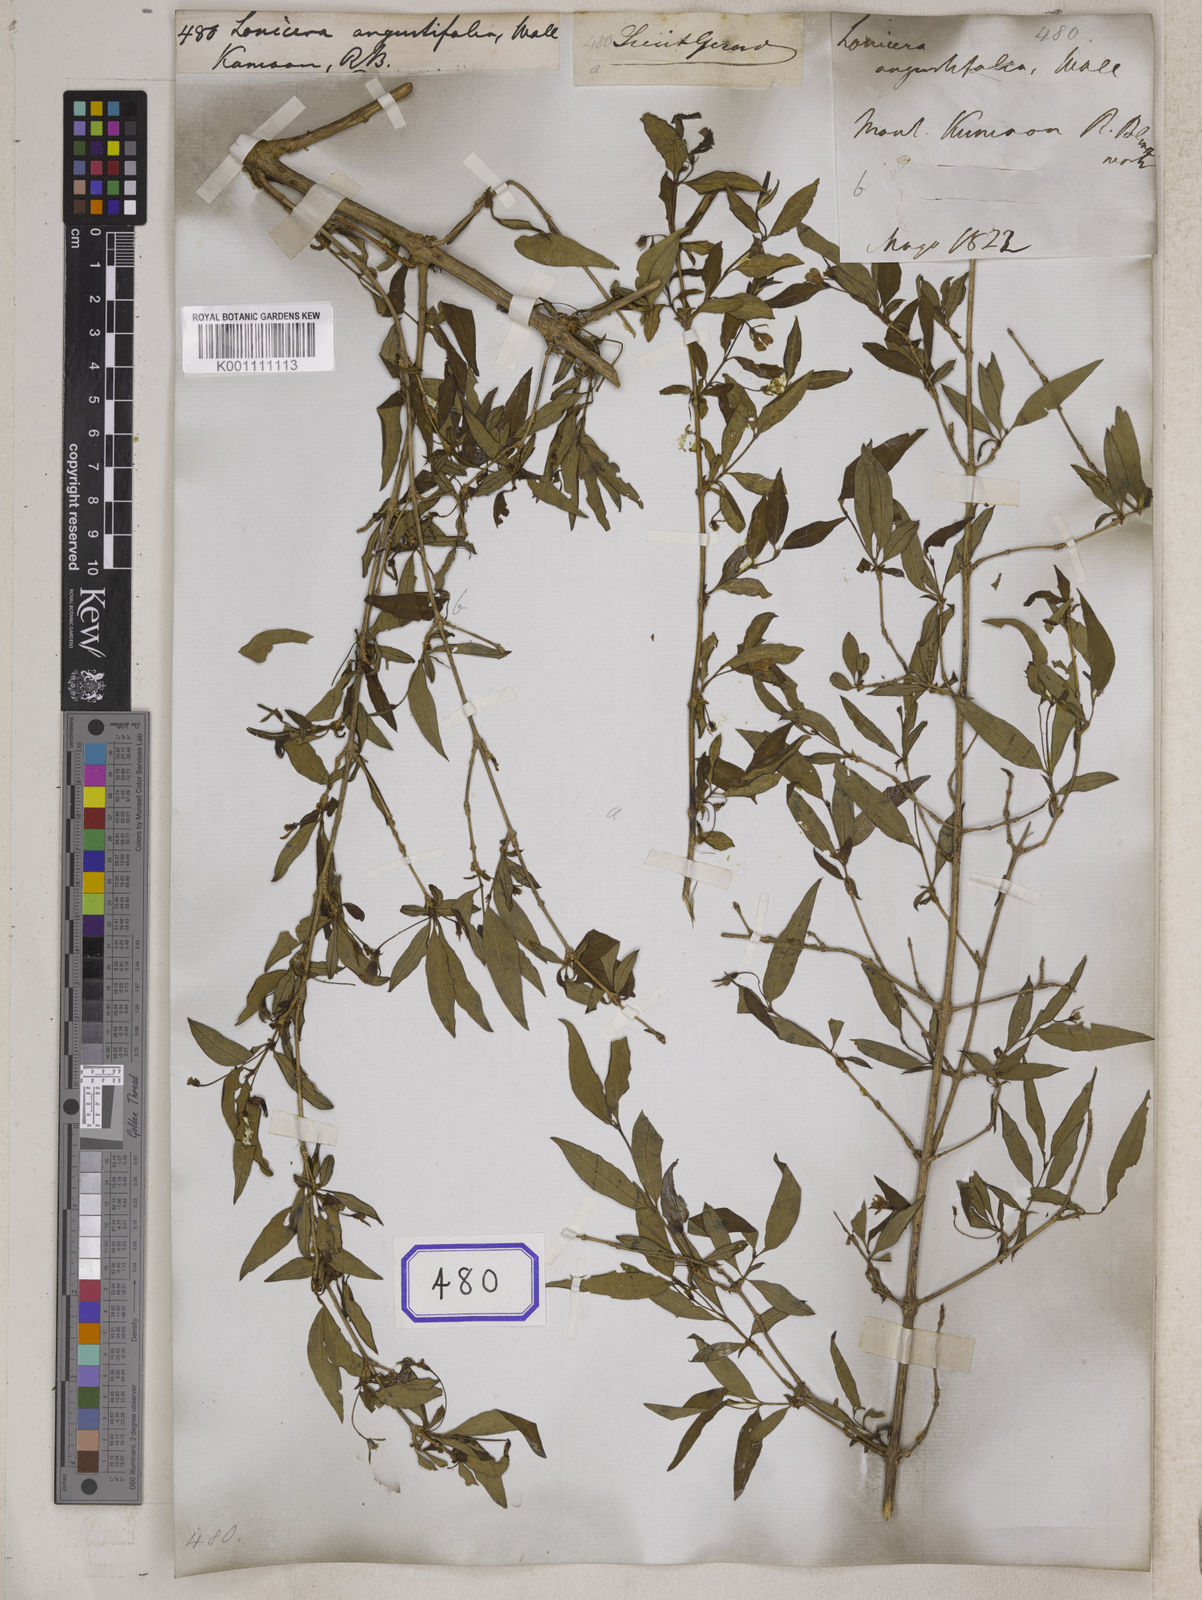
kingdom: Plantae
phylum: Tracheophyta
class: Magnoliopsida
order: Dipsacales
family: Caprifoliaceae
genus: Lonicera
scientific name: Lonicera
